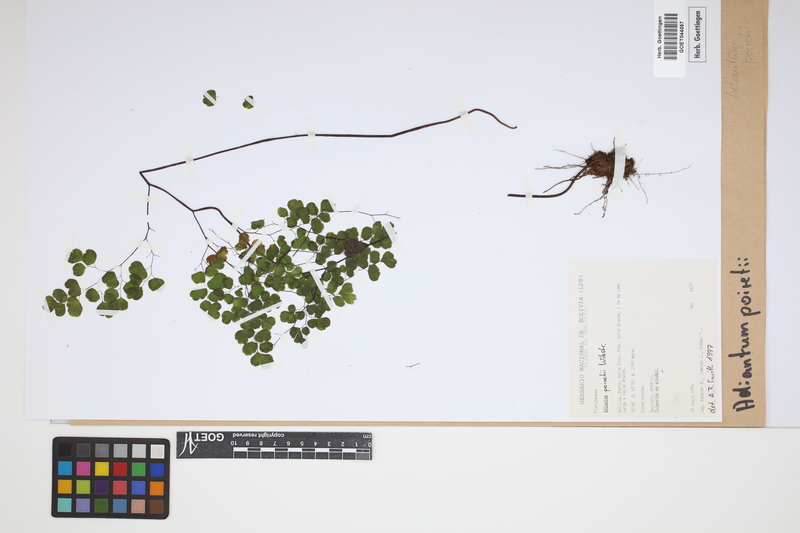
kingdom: Plantae
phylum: Tracheophyta
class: Polypodiopsida
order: Polypodiales
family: Pteridaceae
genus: Adiantum
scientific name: Adiantum poiretii
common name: Mexican maidenhair
